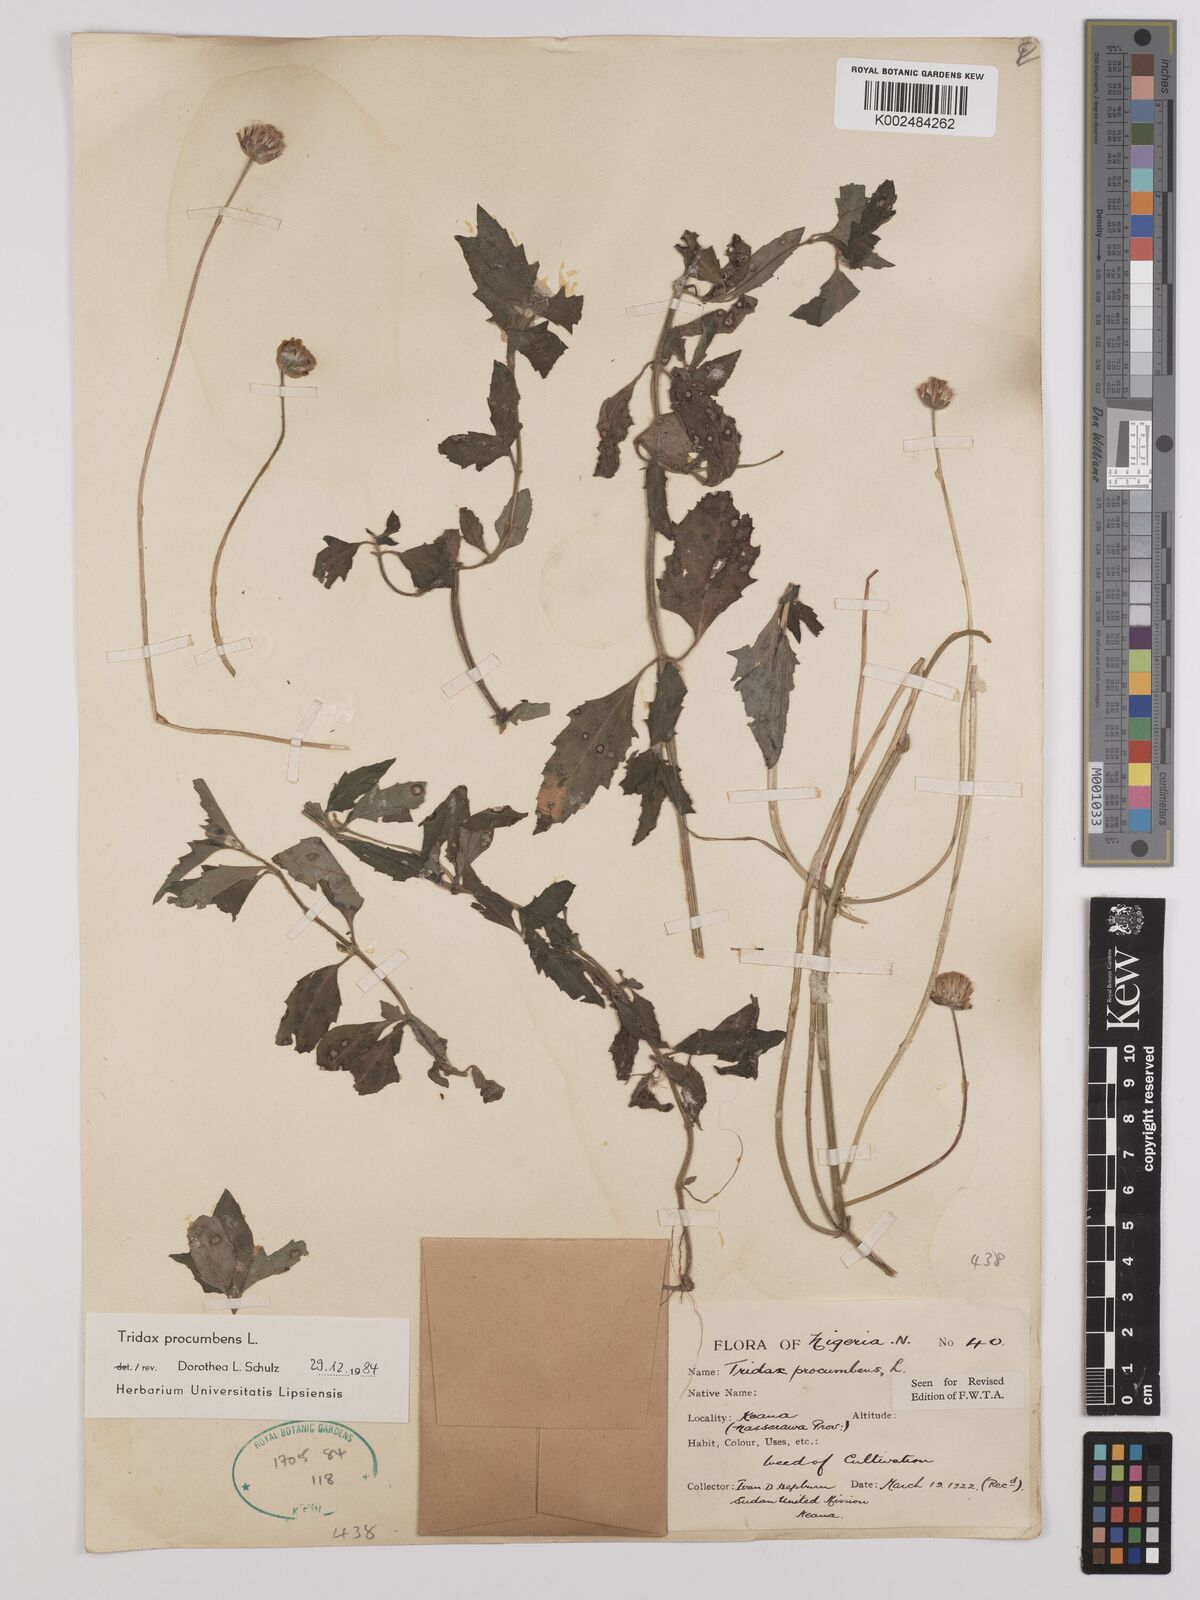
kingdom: Plantae
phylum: Tracheophyta
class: Magnoliopsida
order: Asterales
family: Asteraceae
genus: Tridax
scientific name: Tridax procumbens
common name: Coatbuttons
